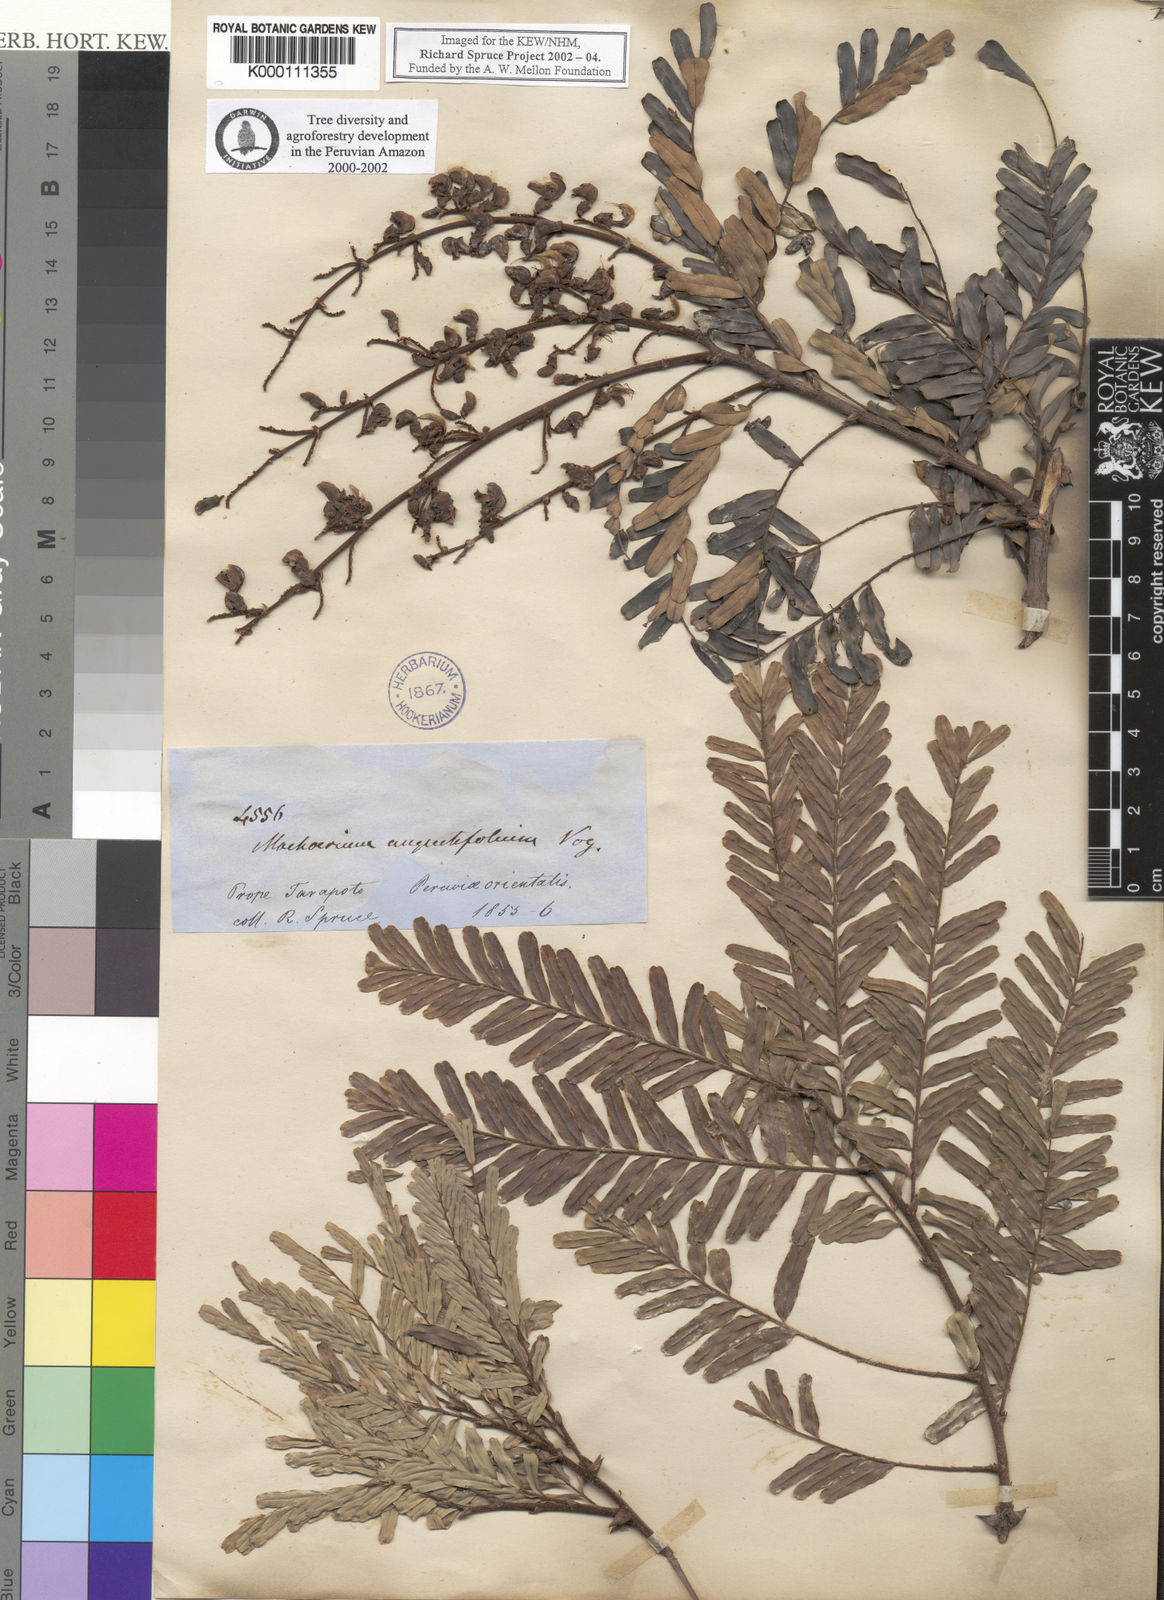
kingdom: Plantae
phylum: Tracheophyta
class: Magnoliopsida
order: Fabales
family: Fabaceae
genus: Machaerium
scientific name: Machaerium isadelphum
